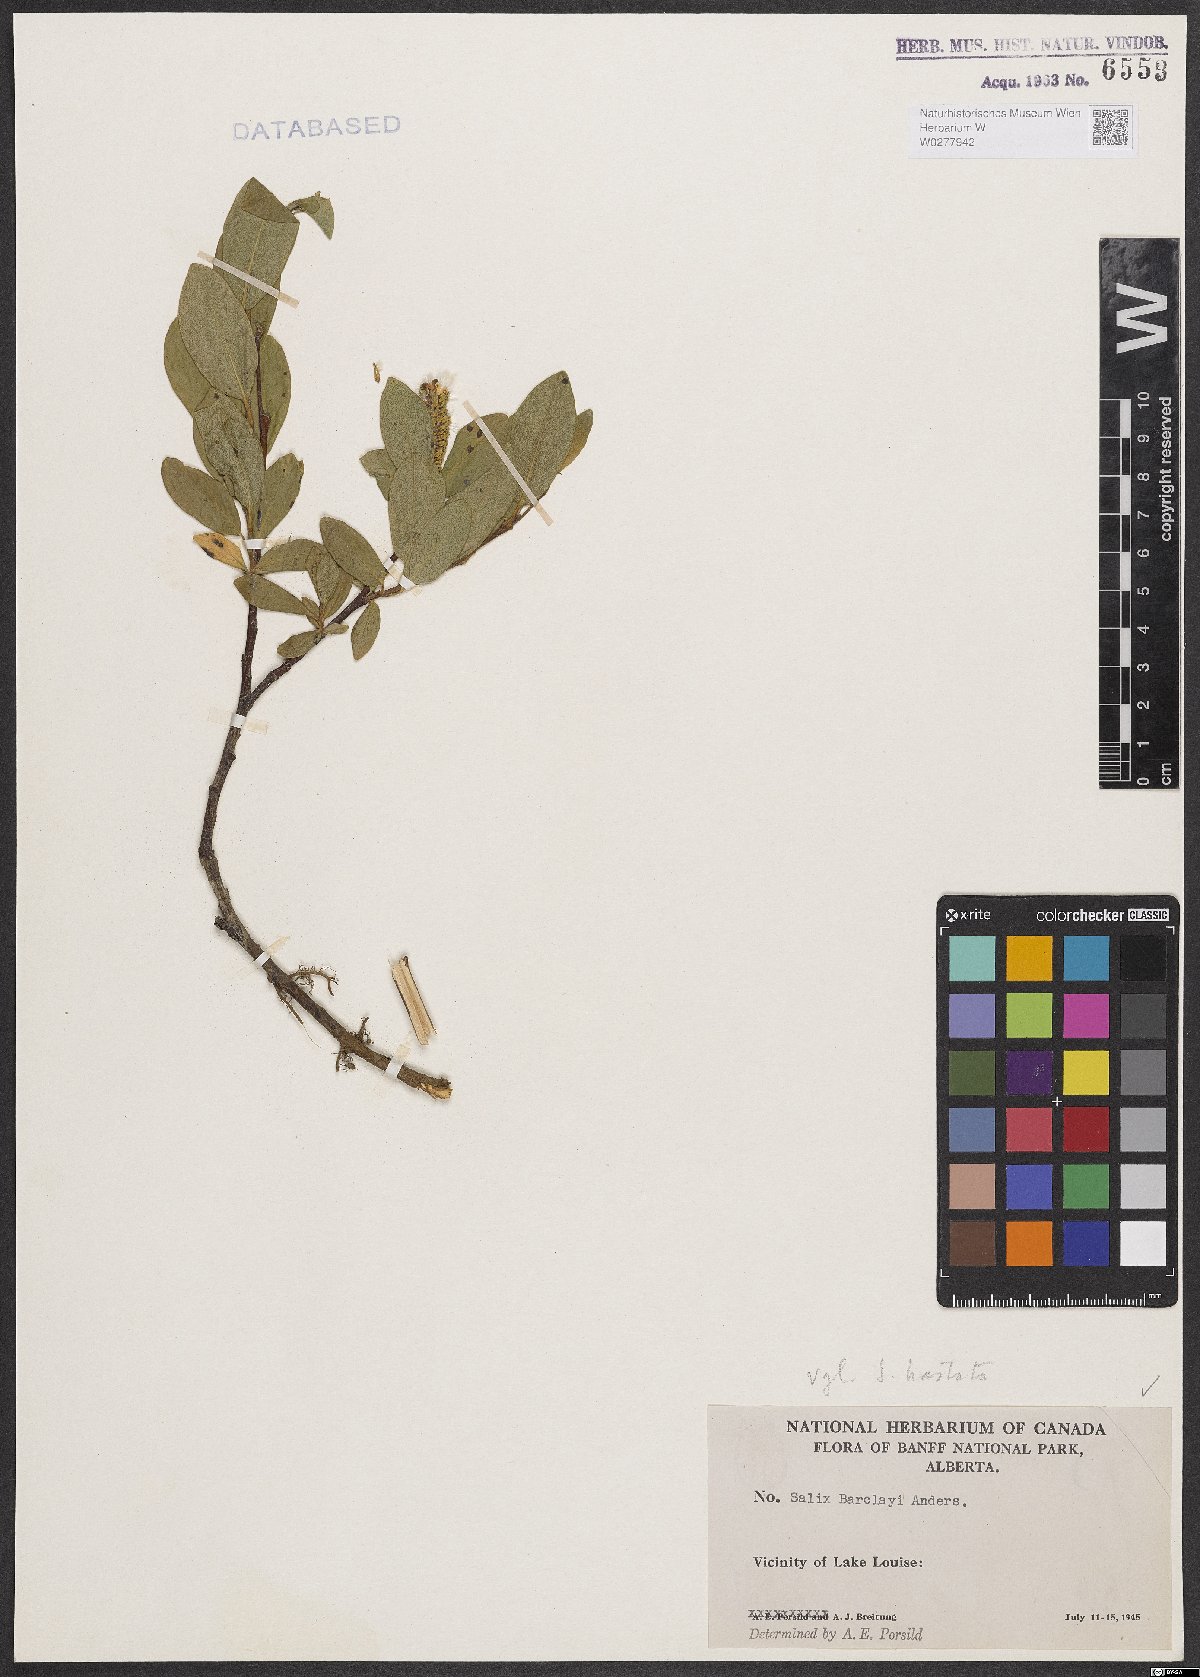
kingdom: Plantae
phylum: Tracheophyta
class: Magnoliopsida
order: Malpighiales
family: Salicaceae
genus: Salix
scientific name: Salix barclayi
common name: Mountain willow
